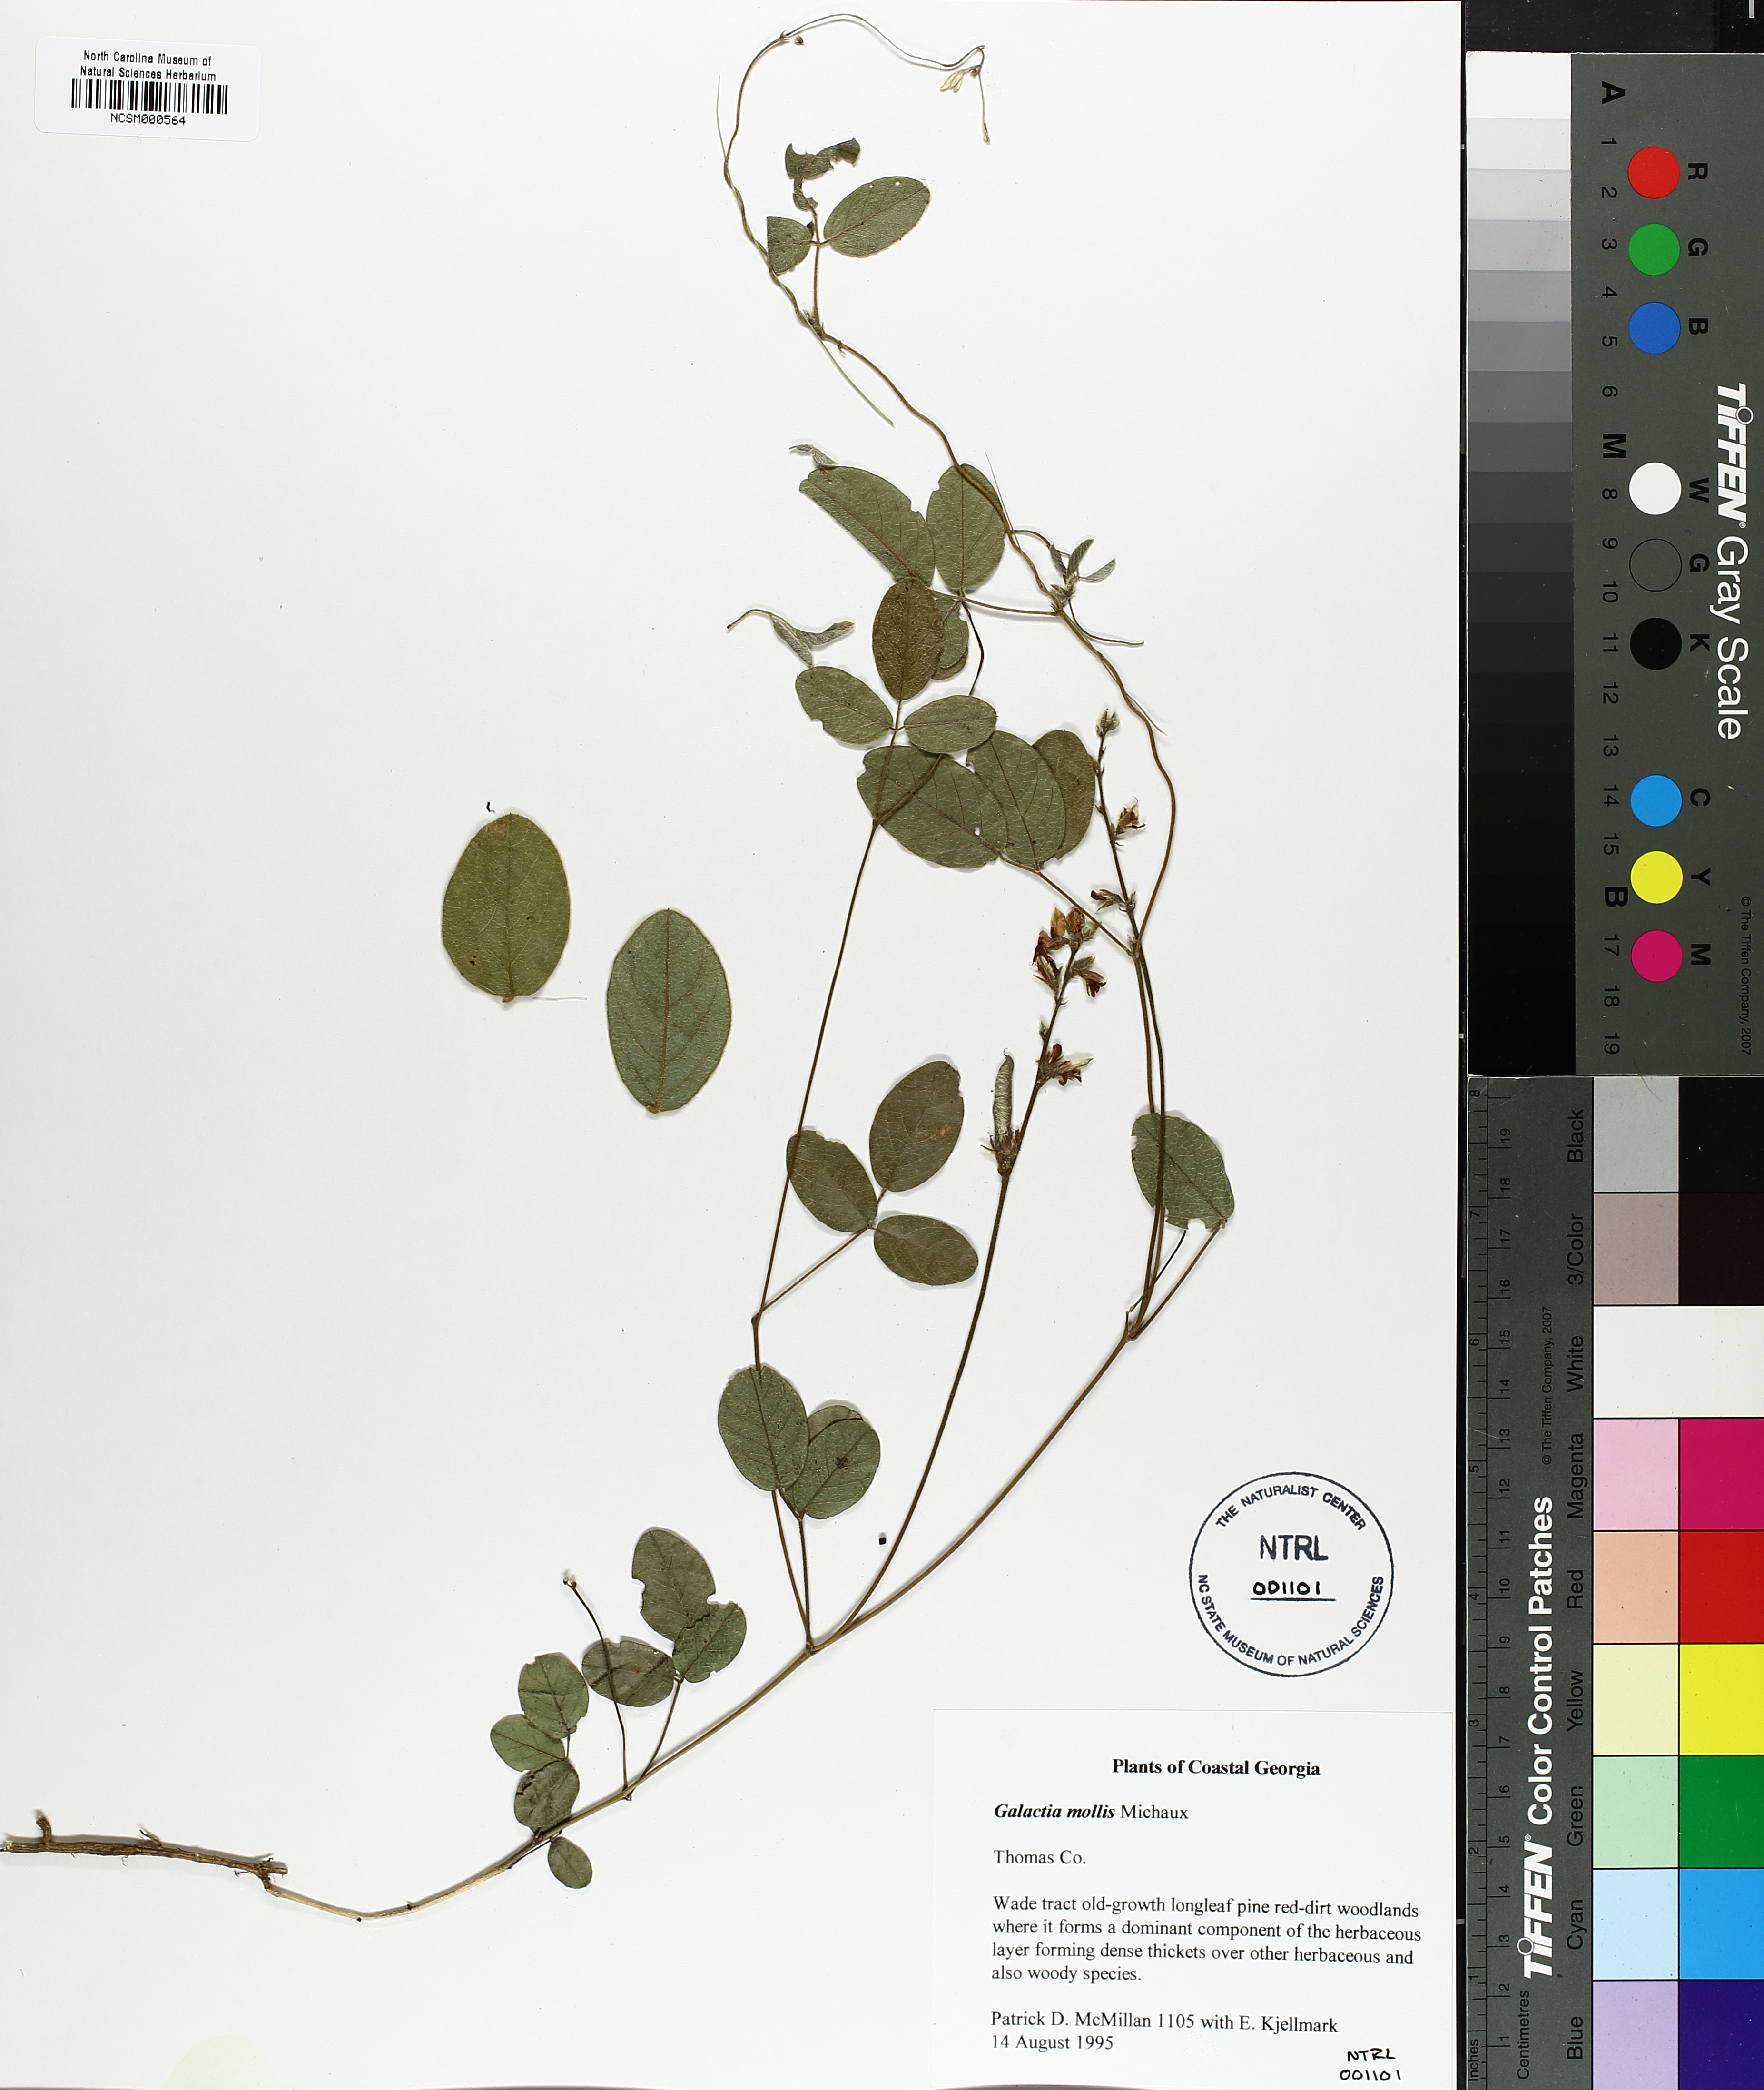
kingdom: Plantae
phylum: Tracheophyta
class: Magnoliopsida
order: Fabales
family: Fabaceae
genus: Galactia
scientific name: Galactia mollis
